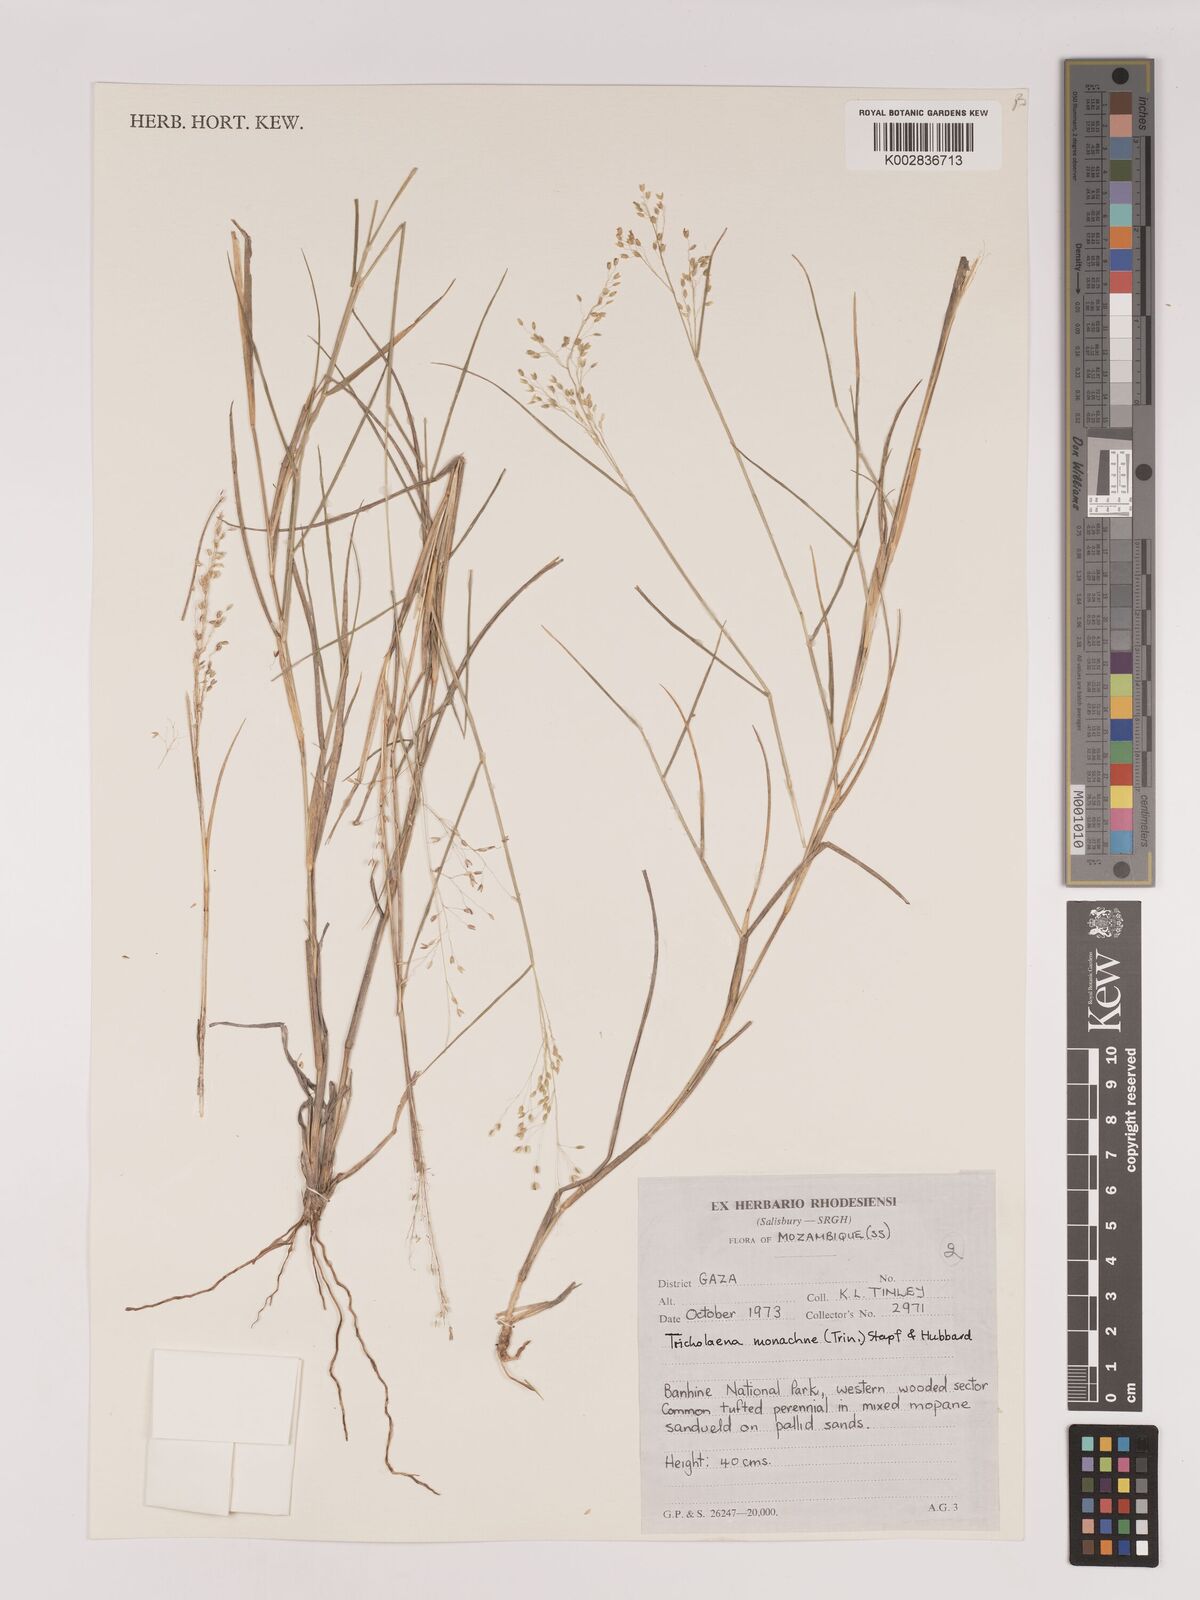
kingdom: Plantae
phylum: Tracheophyta
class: Liliopsida
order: Poales
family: Poaceae
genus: Tricholaena
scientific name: Tricholaena monachne
